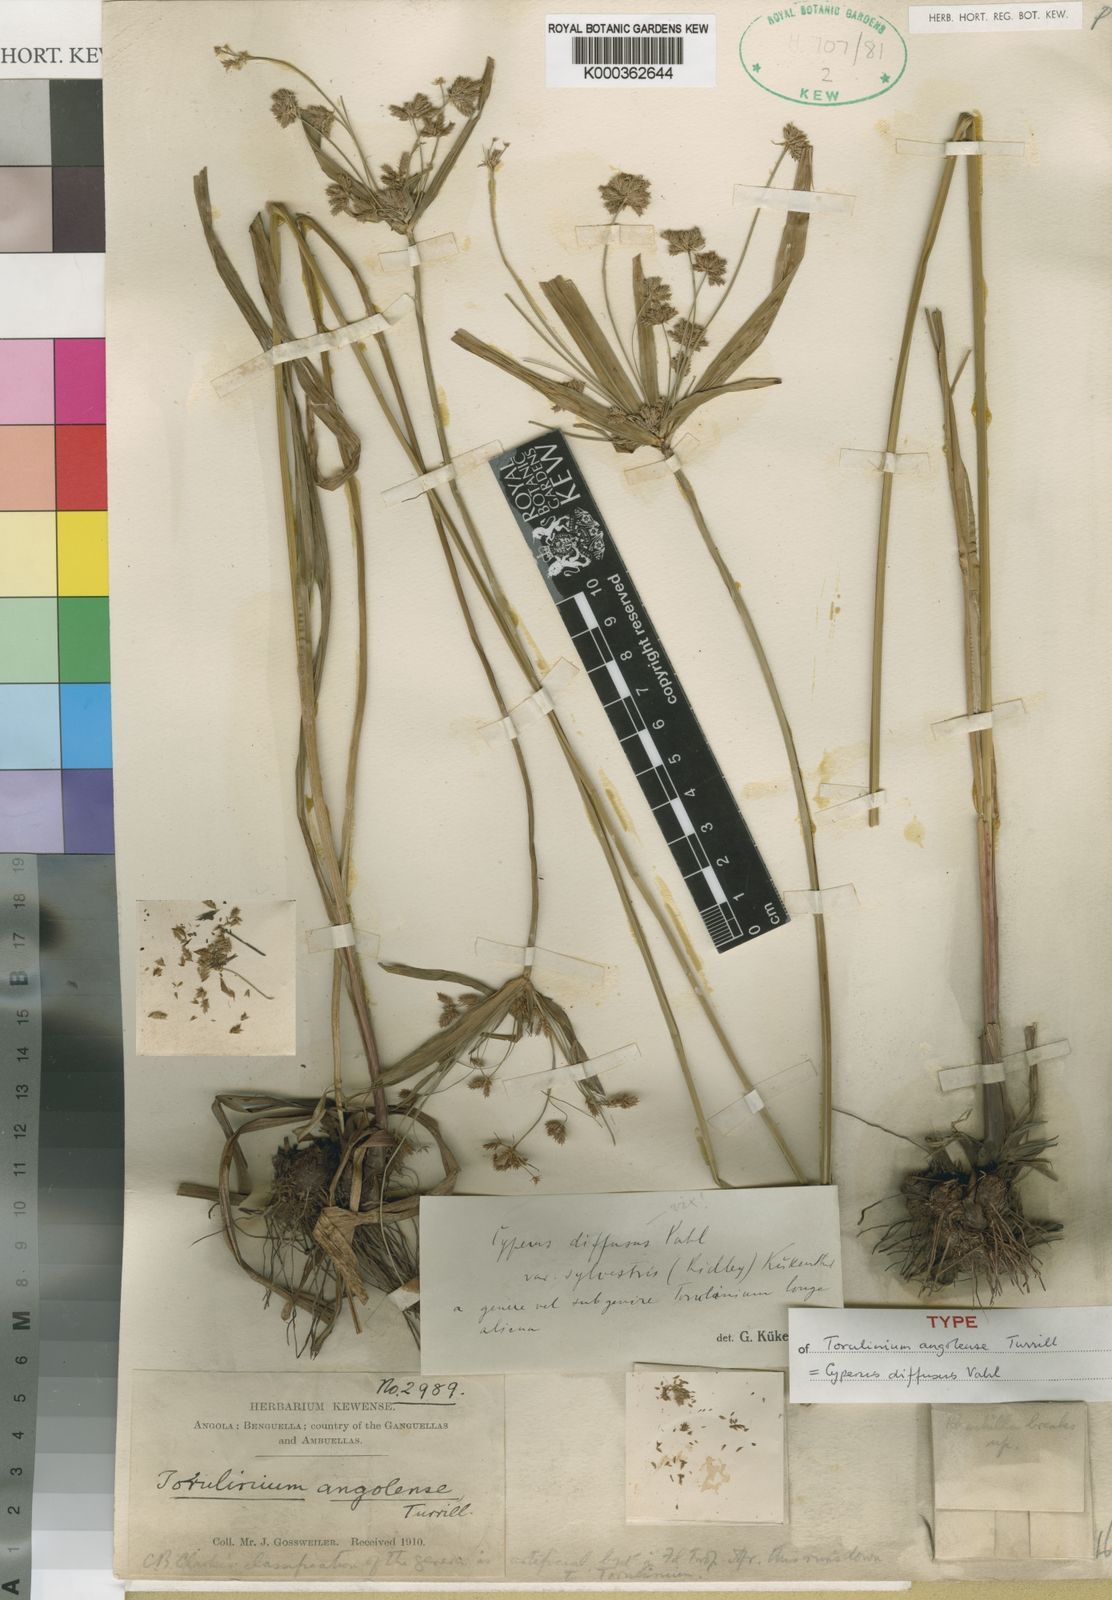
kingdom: Plantae
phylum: Tracheophyta
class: Liliopsida
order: Poales
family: Cyperaceae
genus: Cyperus
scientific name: Cyperus diffusus
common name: Dwarf umbrella grass
